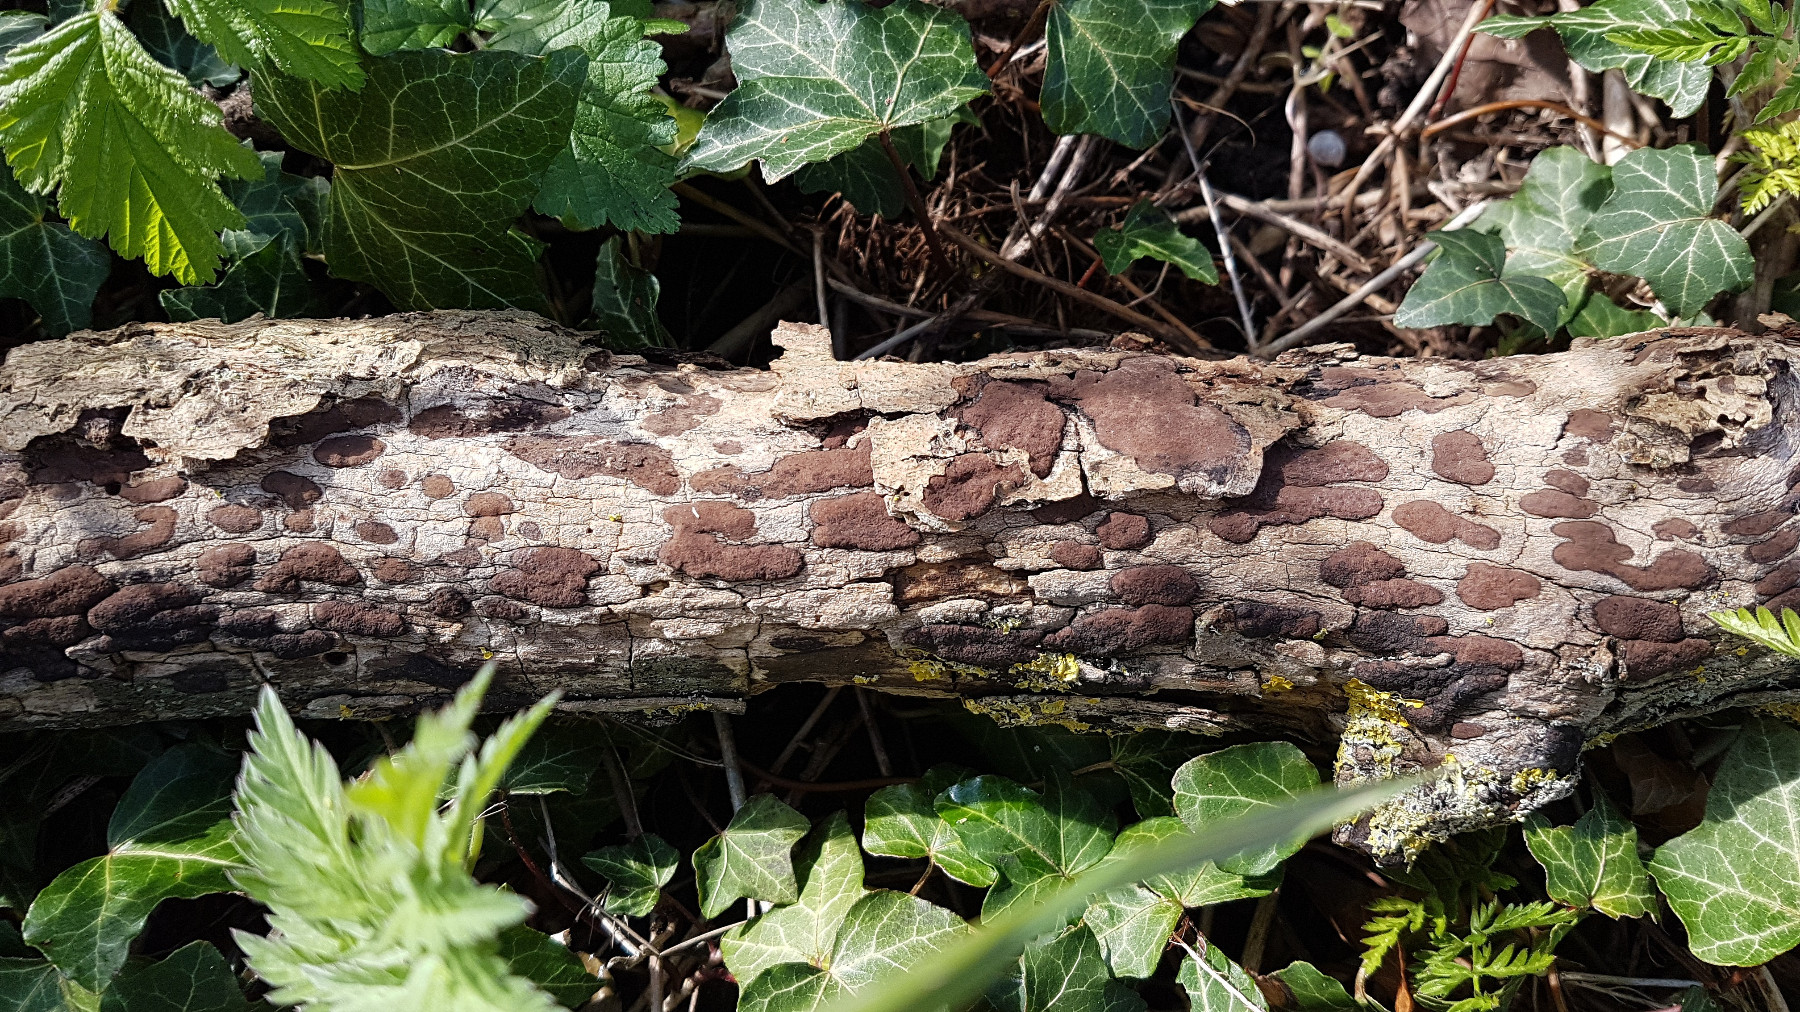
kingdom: Fungi
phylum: Ascomycota
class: Sordariomycetes
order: Xylariales
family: Hypoxylaceae
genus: Hypoxylon
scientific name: Hypoxylon petriniae
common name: nedsænket kulbær
